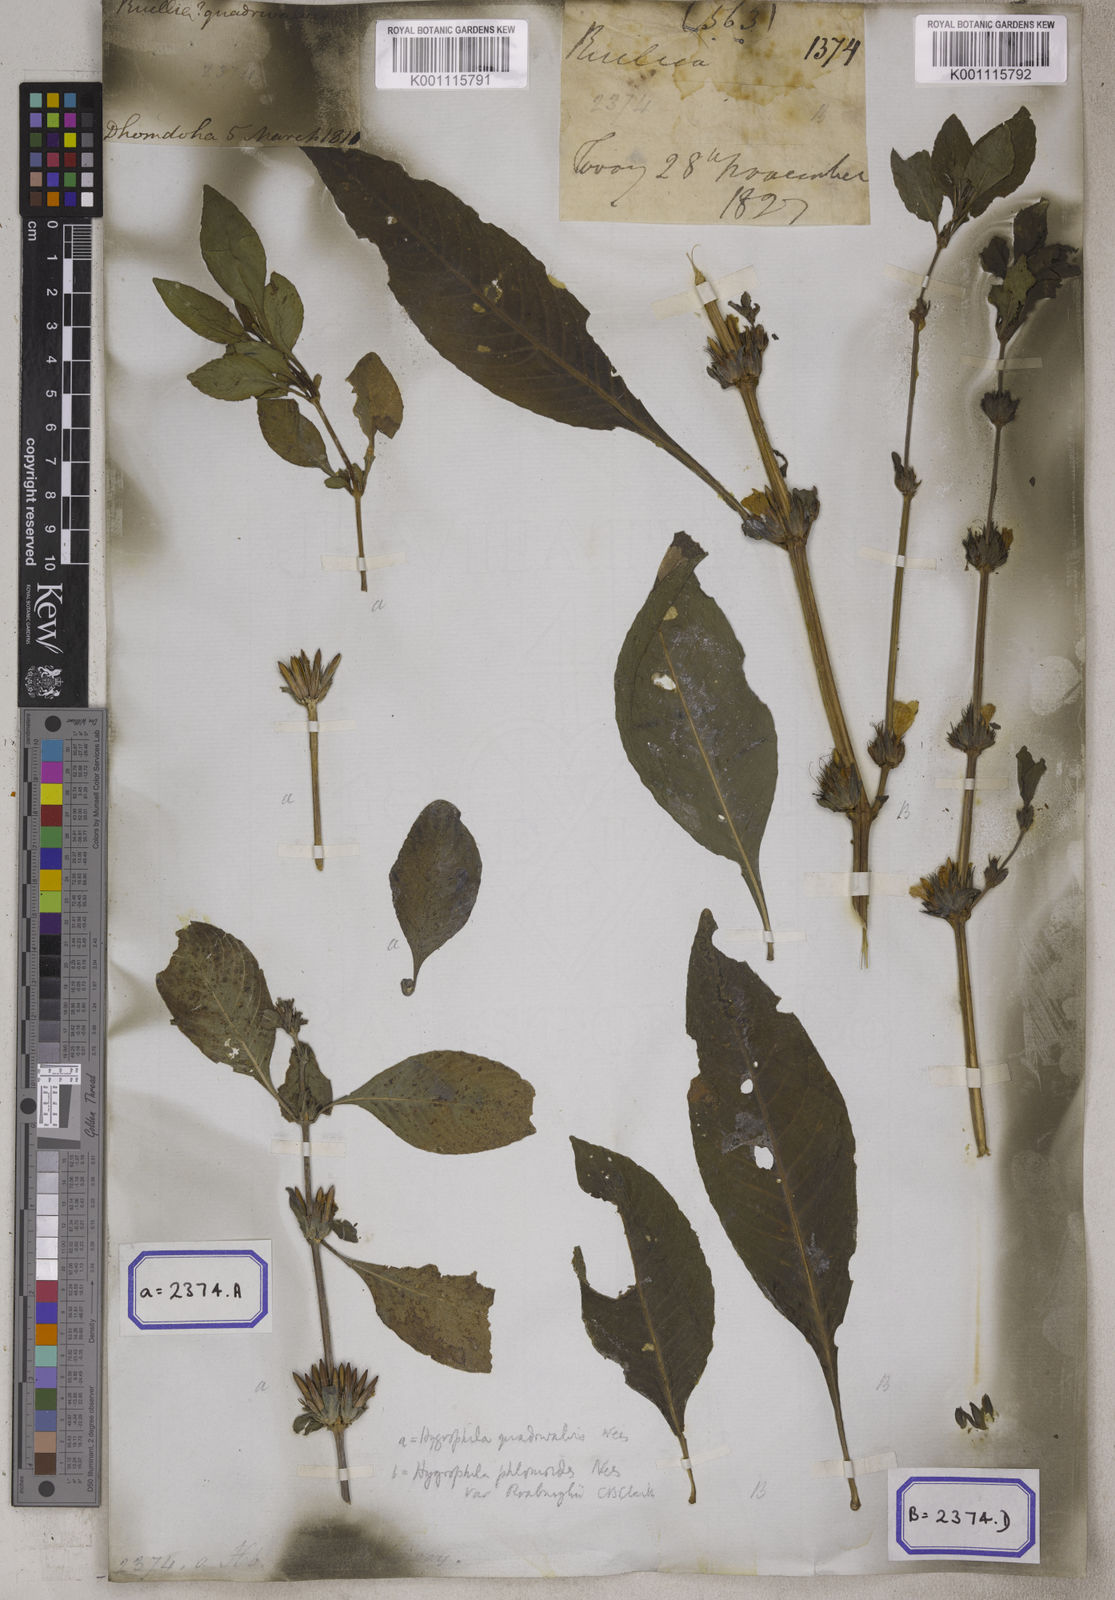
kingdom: Plantae
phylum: Tracheophyta
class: Magnoliopsida
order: Lamiales
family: Acanthaceae
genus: Ruellia
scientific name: Ruellia
